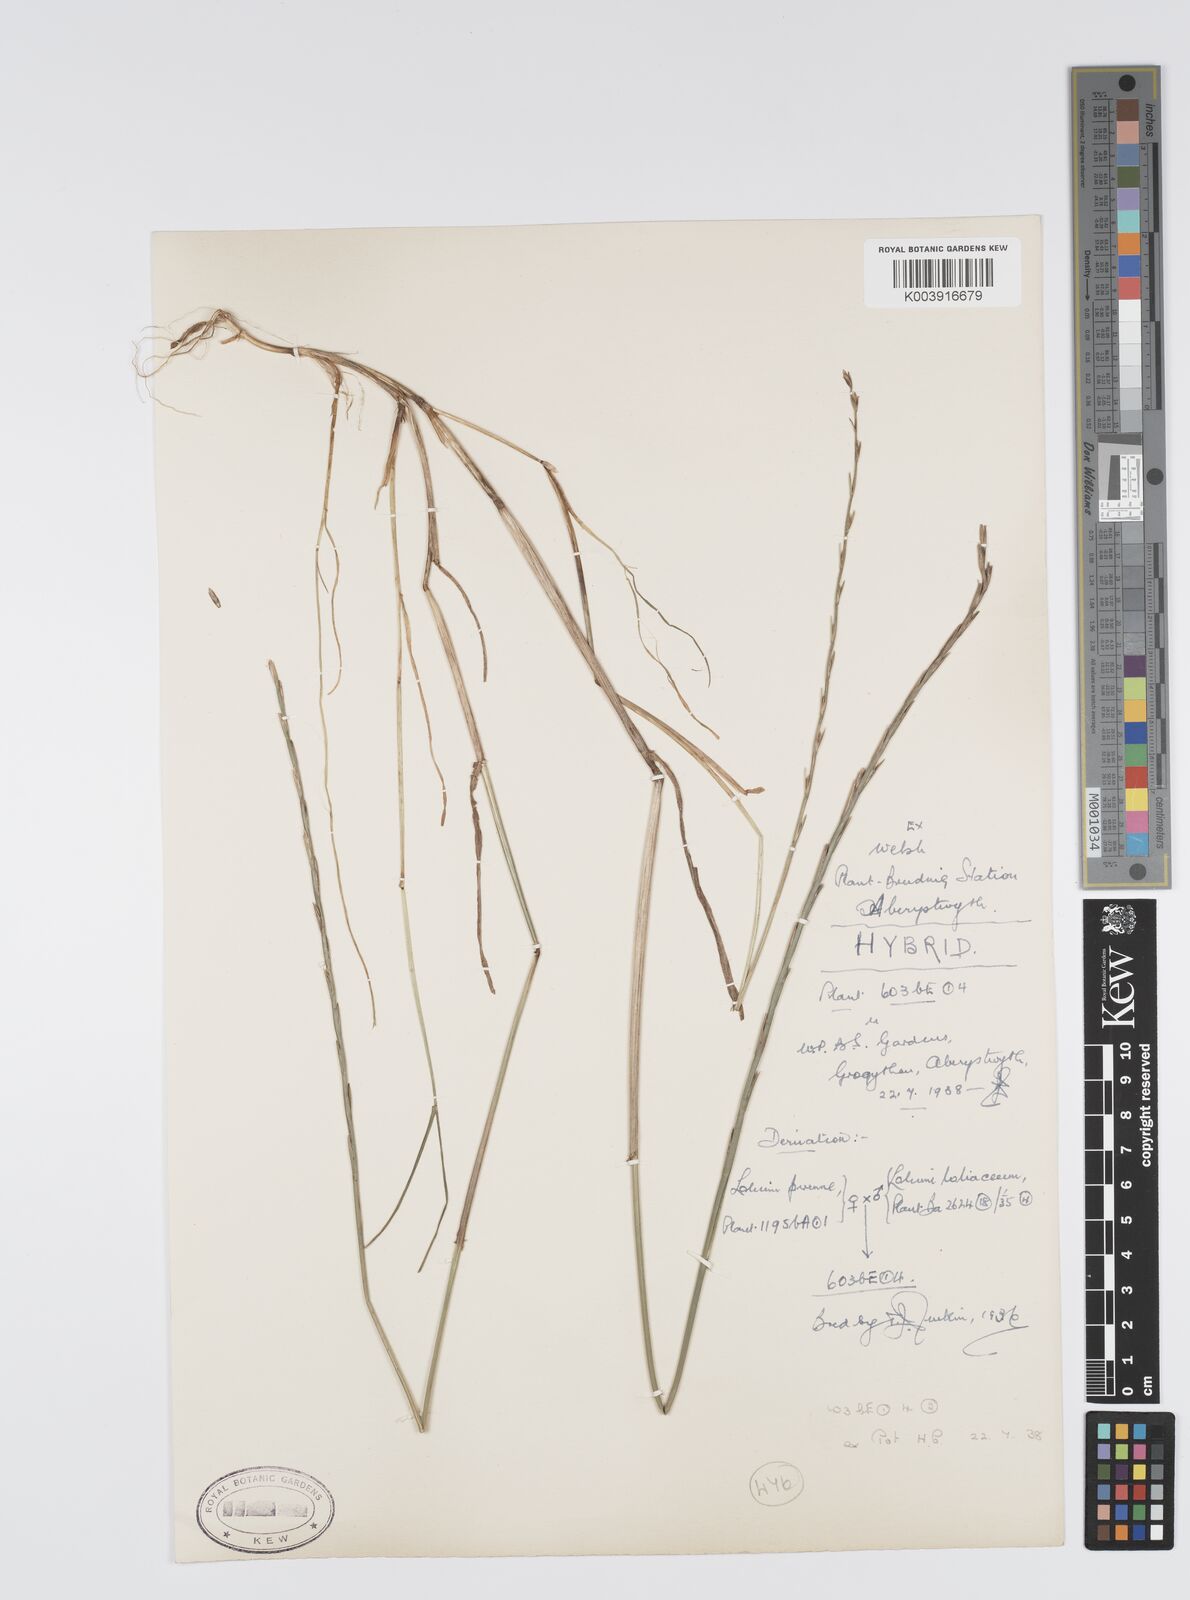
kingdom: Plantae
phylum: Tracheophyta
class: Liliopsida
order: Poales
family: Poaceae
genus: Lolium
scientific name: Lolium perenne
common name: Perennial ryegrass
